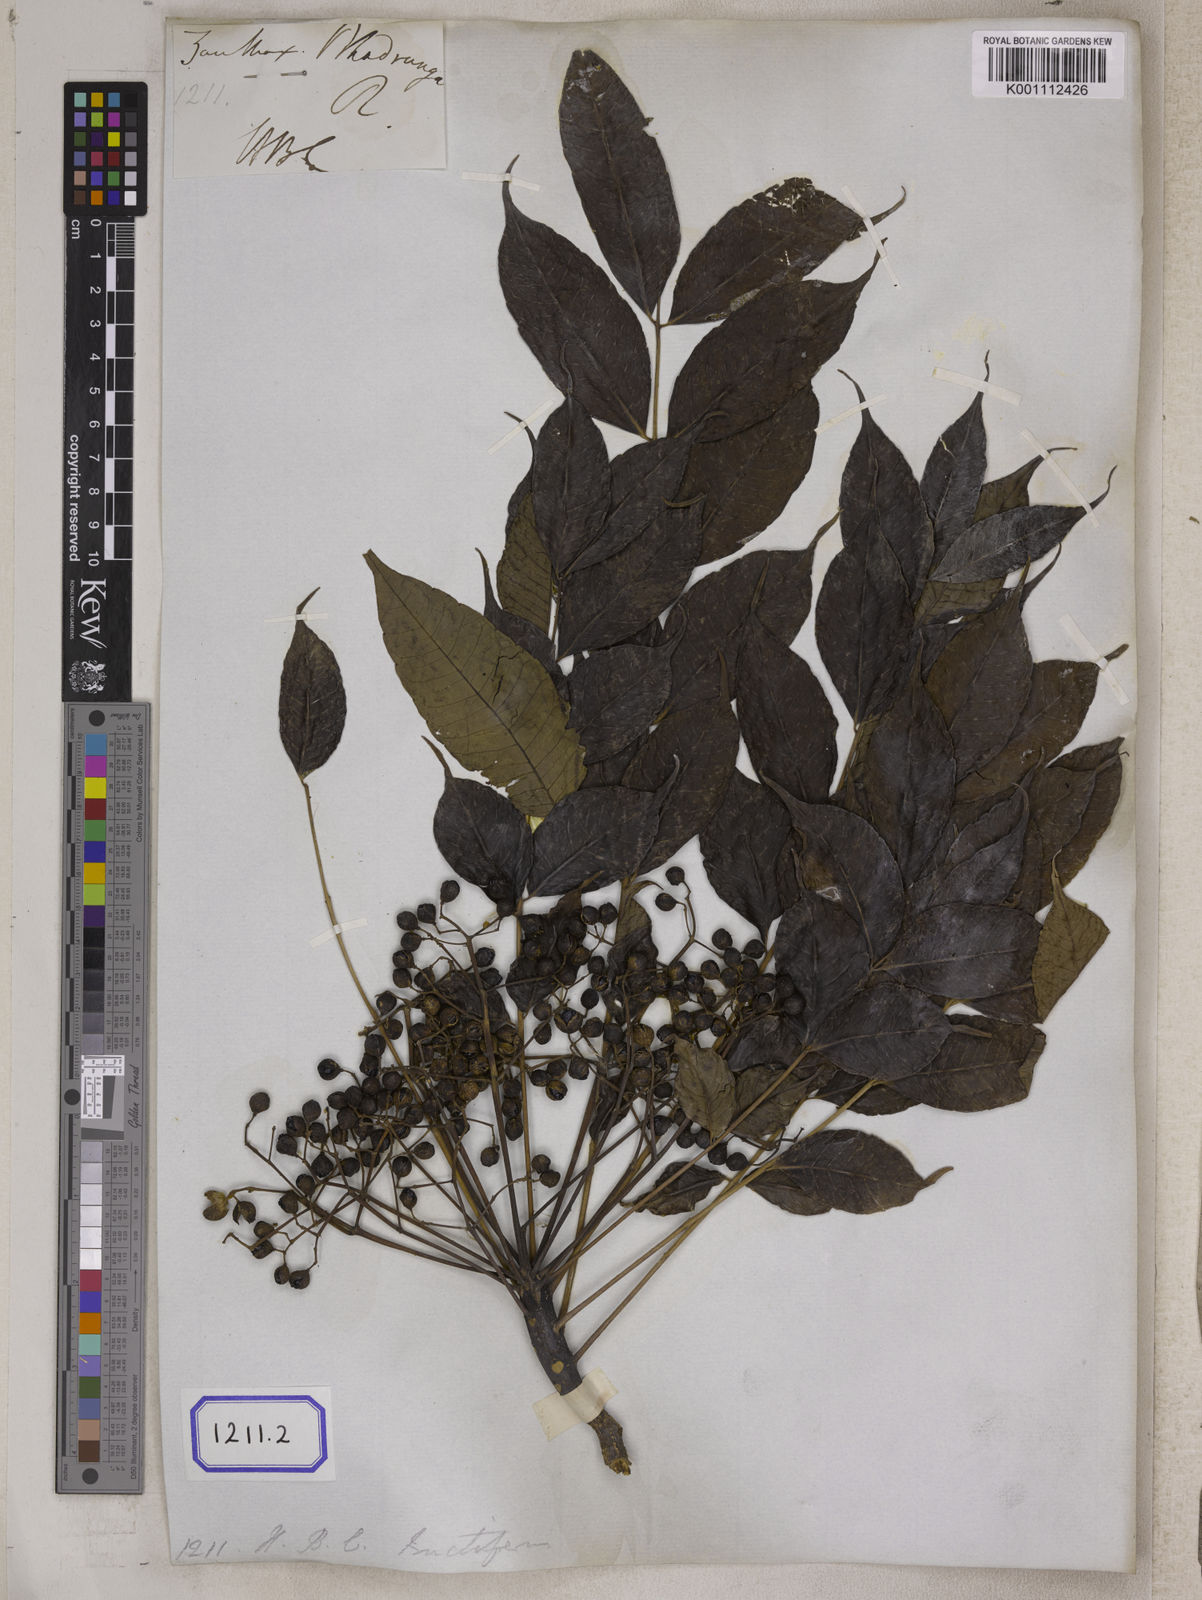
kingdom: Plantae
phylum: Tracheophyta
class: Magnoliopsida
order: Sapindales
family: Rutaceae
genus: Zanthoxylum
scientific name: Zanthoxylum rhetsa
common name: Indian ivy-rue
